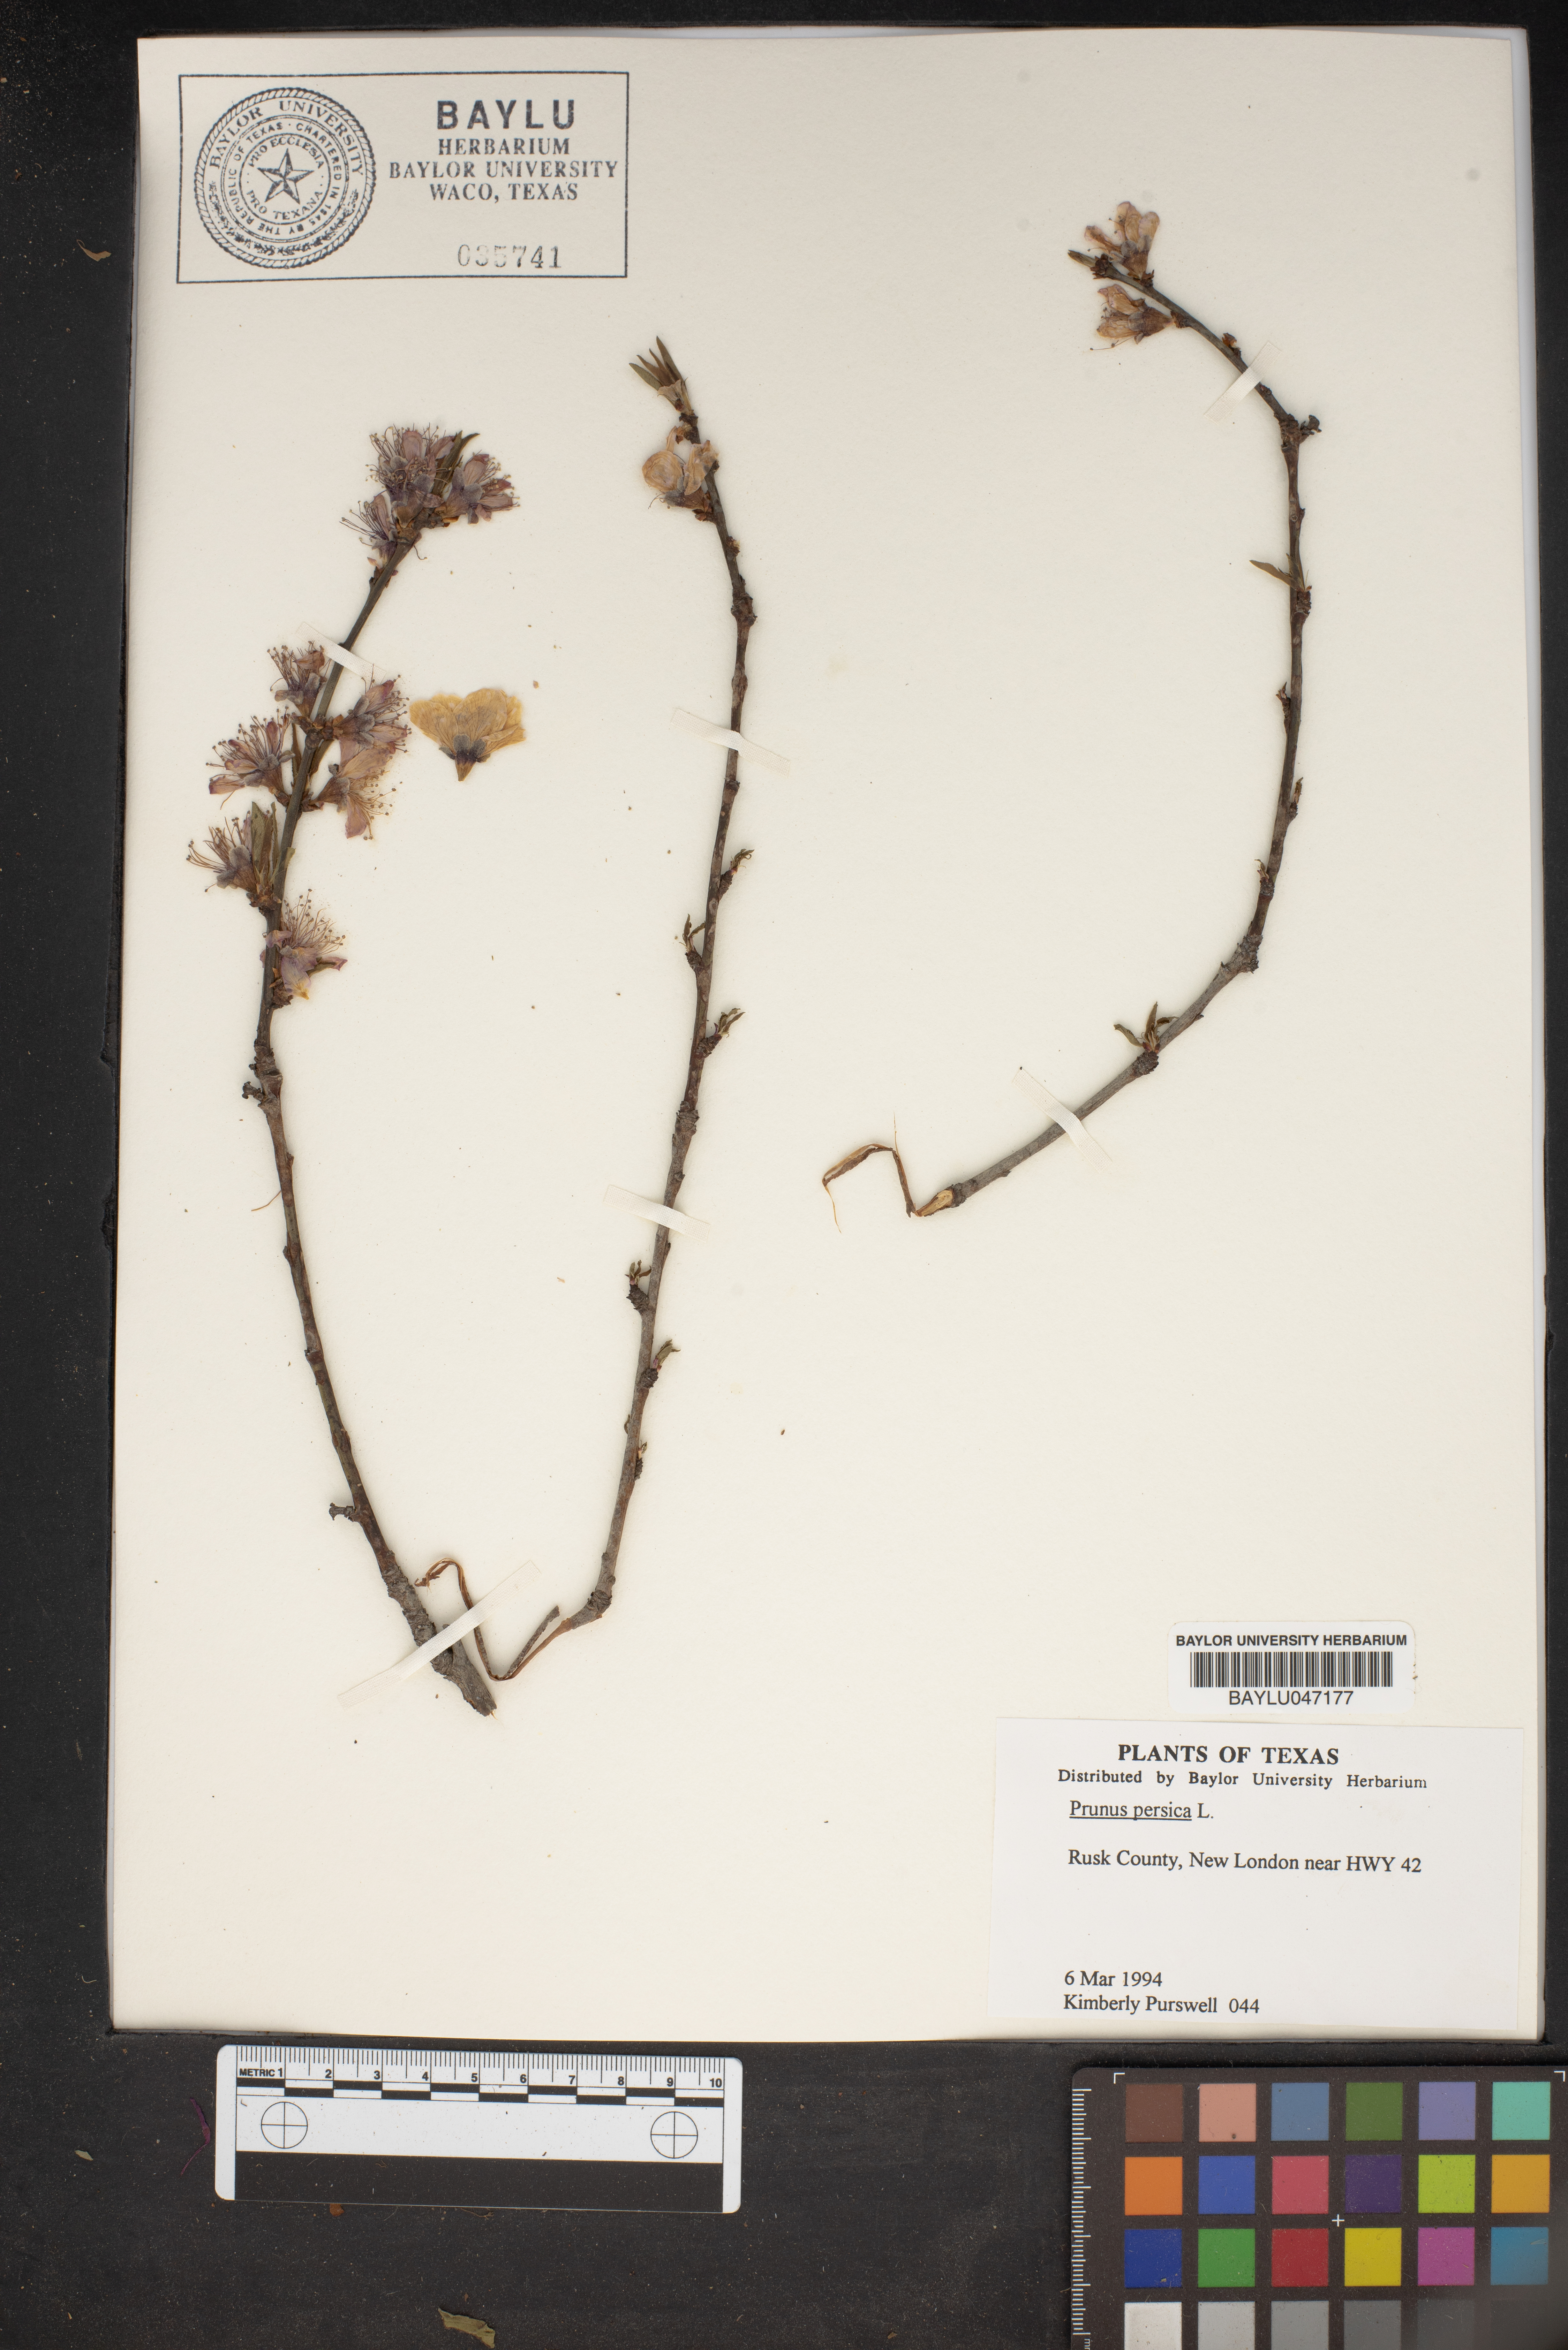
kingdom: Plantae
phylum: Tracheophyta
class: Magnoliopsida
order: Rosales
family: Rosaceae
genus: Prunus
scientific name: Prunus persica
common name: Peach
